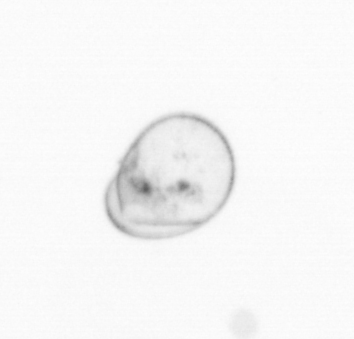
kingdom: Chromista
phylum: Myzozoa
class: Dinophyceae
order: Noctilucales
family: Noctilucaceae
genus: Noctiluca
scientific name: Noctiluca scintillans
